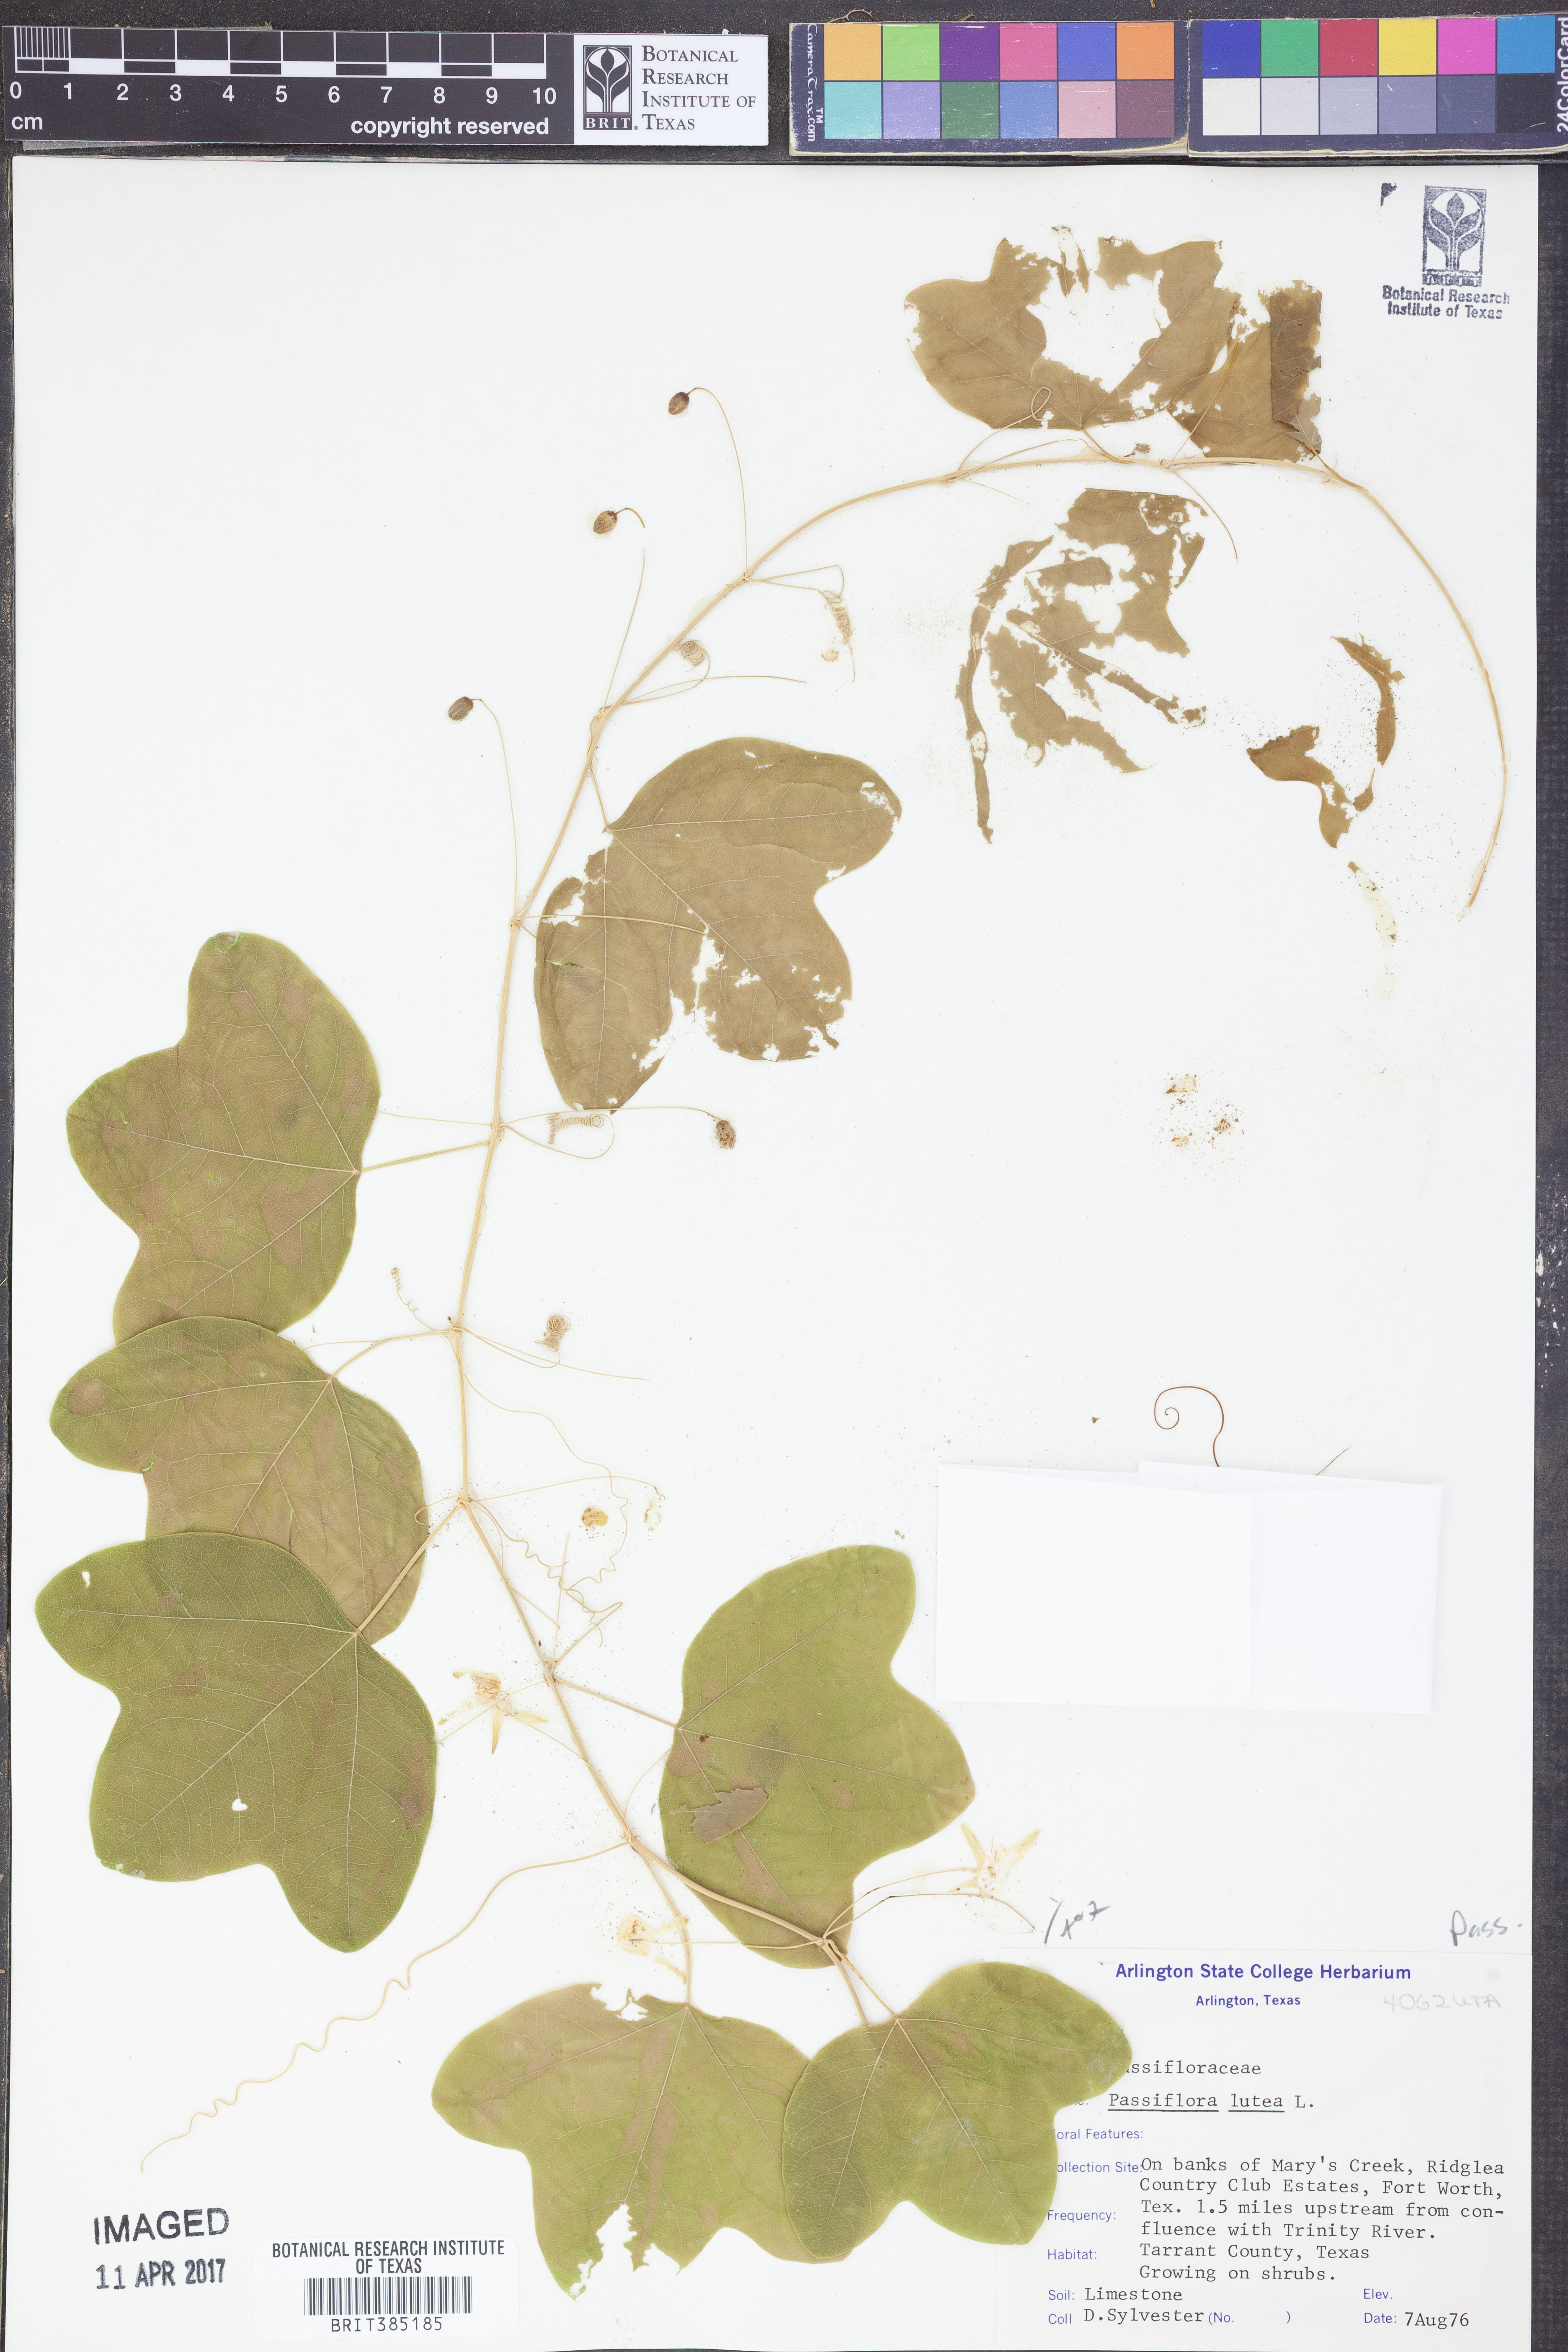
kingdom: Plantae
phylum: Tracheophyta
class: Magnoliopsida
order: Malpighiales
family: Passifloraceae
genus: Passiflora
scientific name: Passiflora lutea
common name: Yellow passionflower
